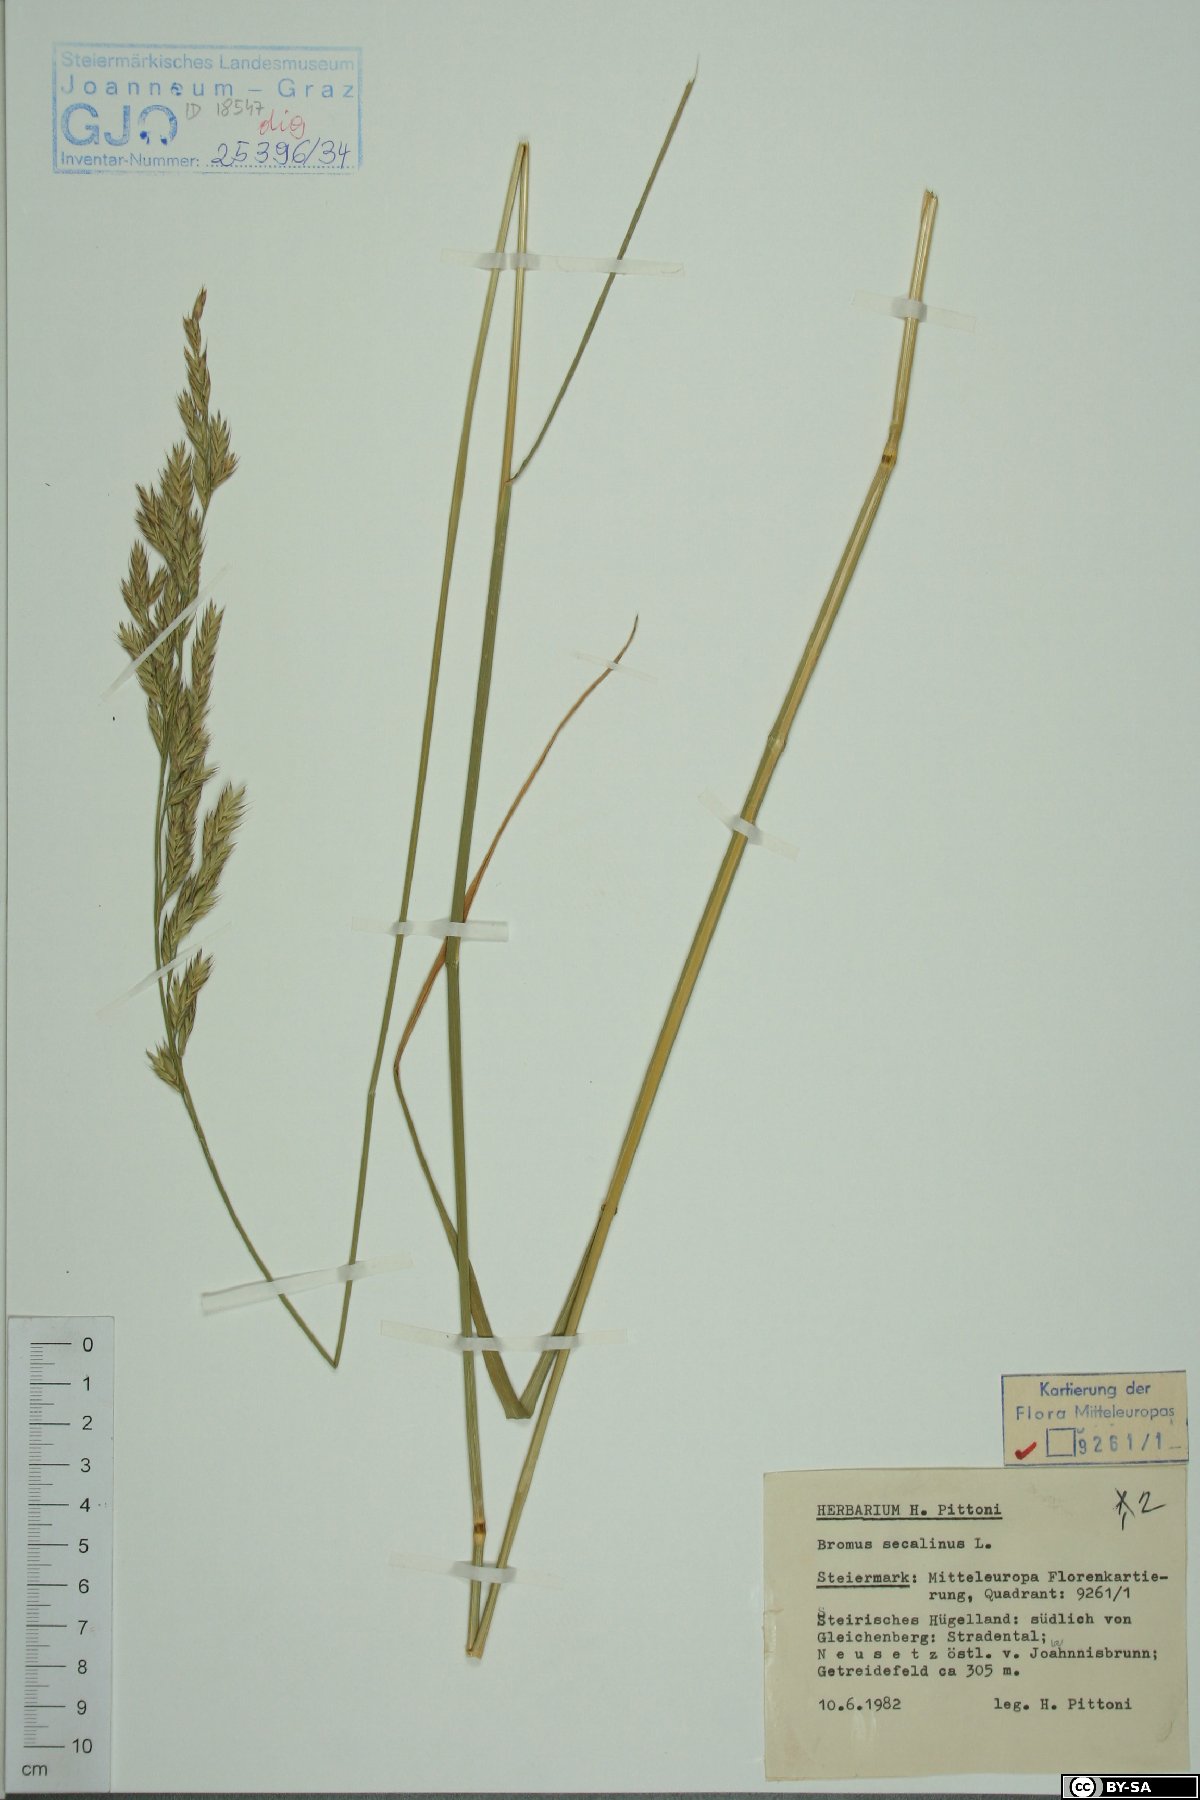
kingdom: Plantae
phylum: Tracheophyta
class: Liliopsida
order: Poales
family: Poaceae
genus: Bromus
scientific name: Bromus secalinus
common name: Rye brome
